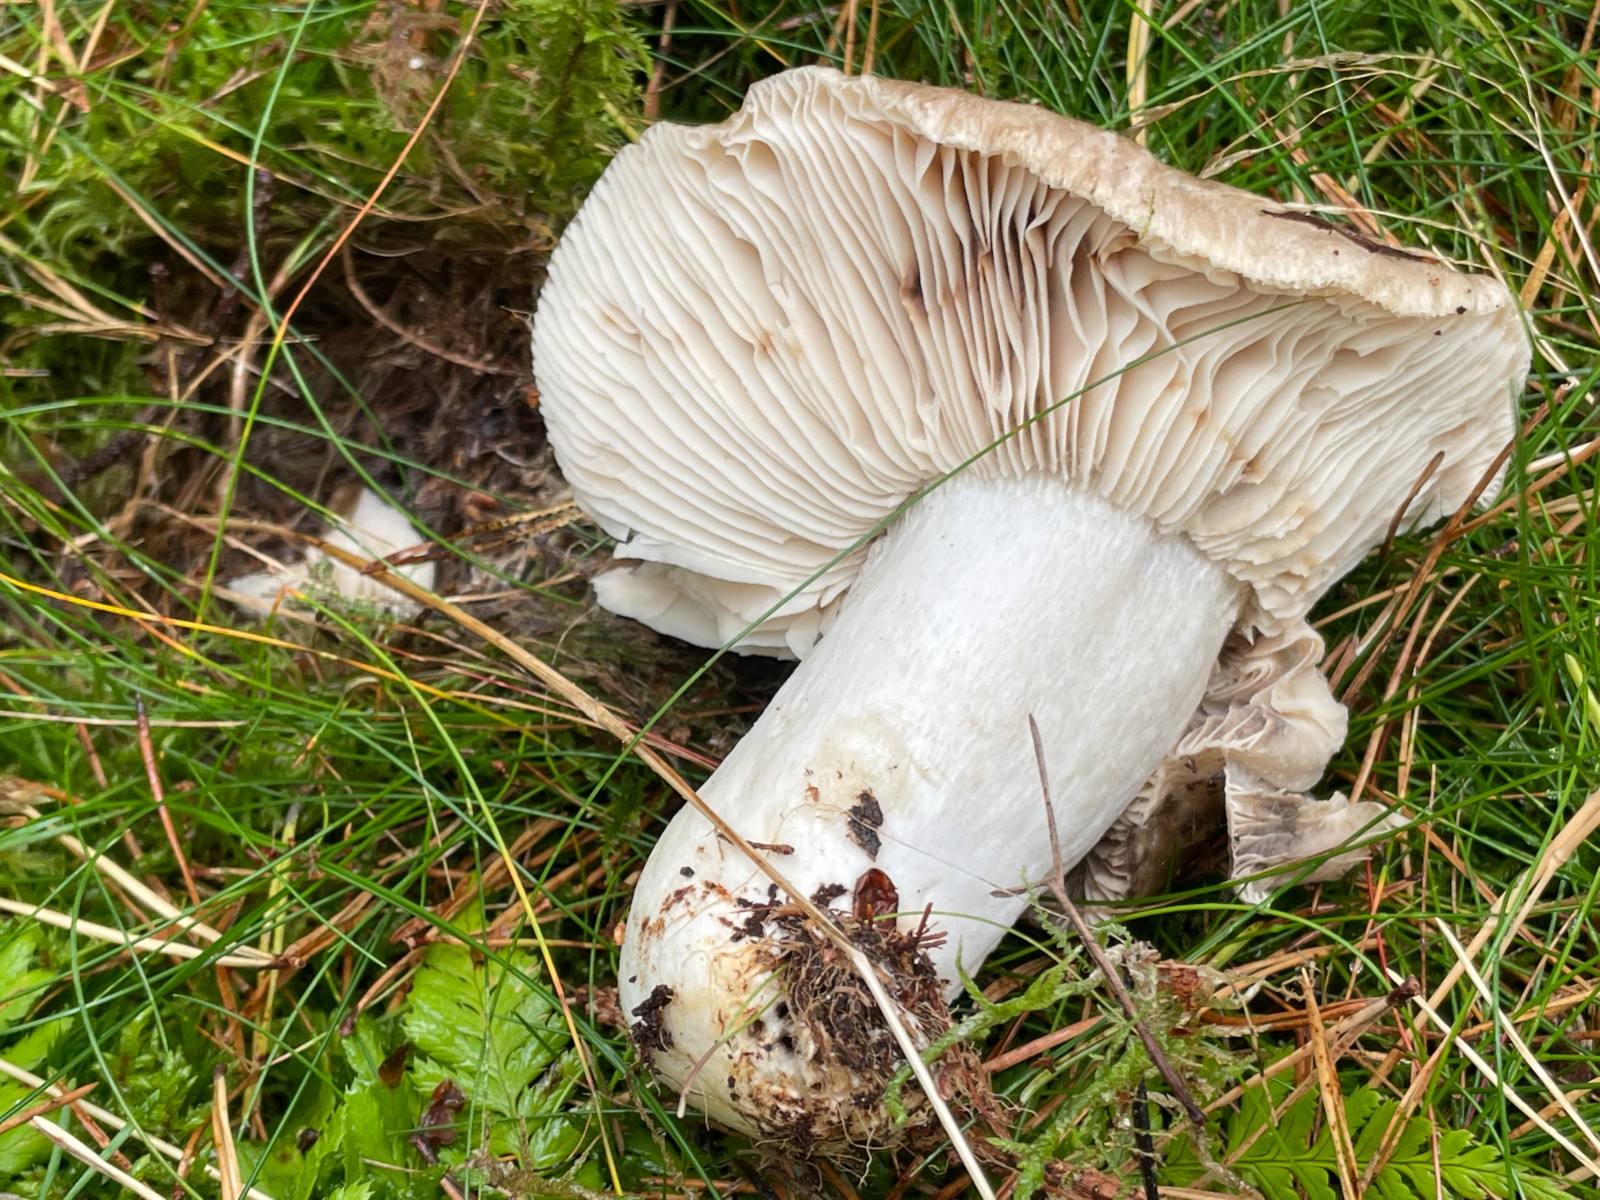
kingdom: Fungi
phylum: Basidiomycota
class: Agaricomycetes
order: Russulales
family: Russulaceae
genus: Russula
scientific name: Russula adusta
